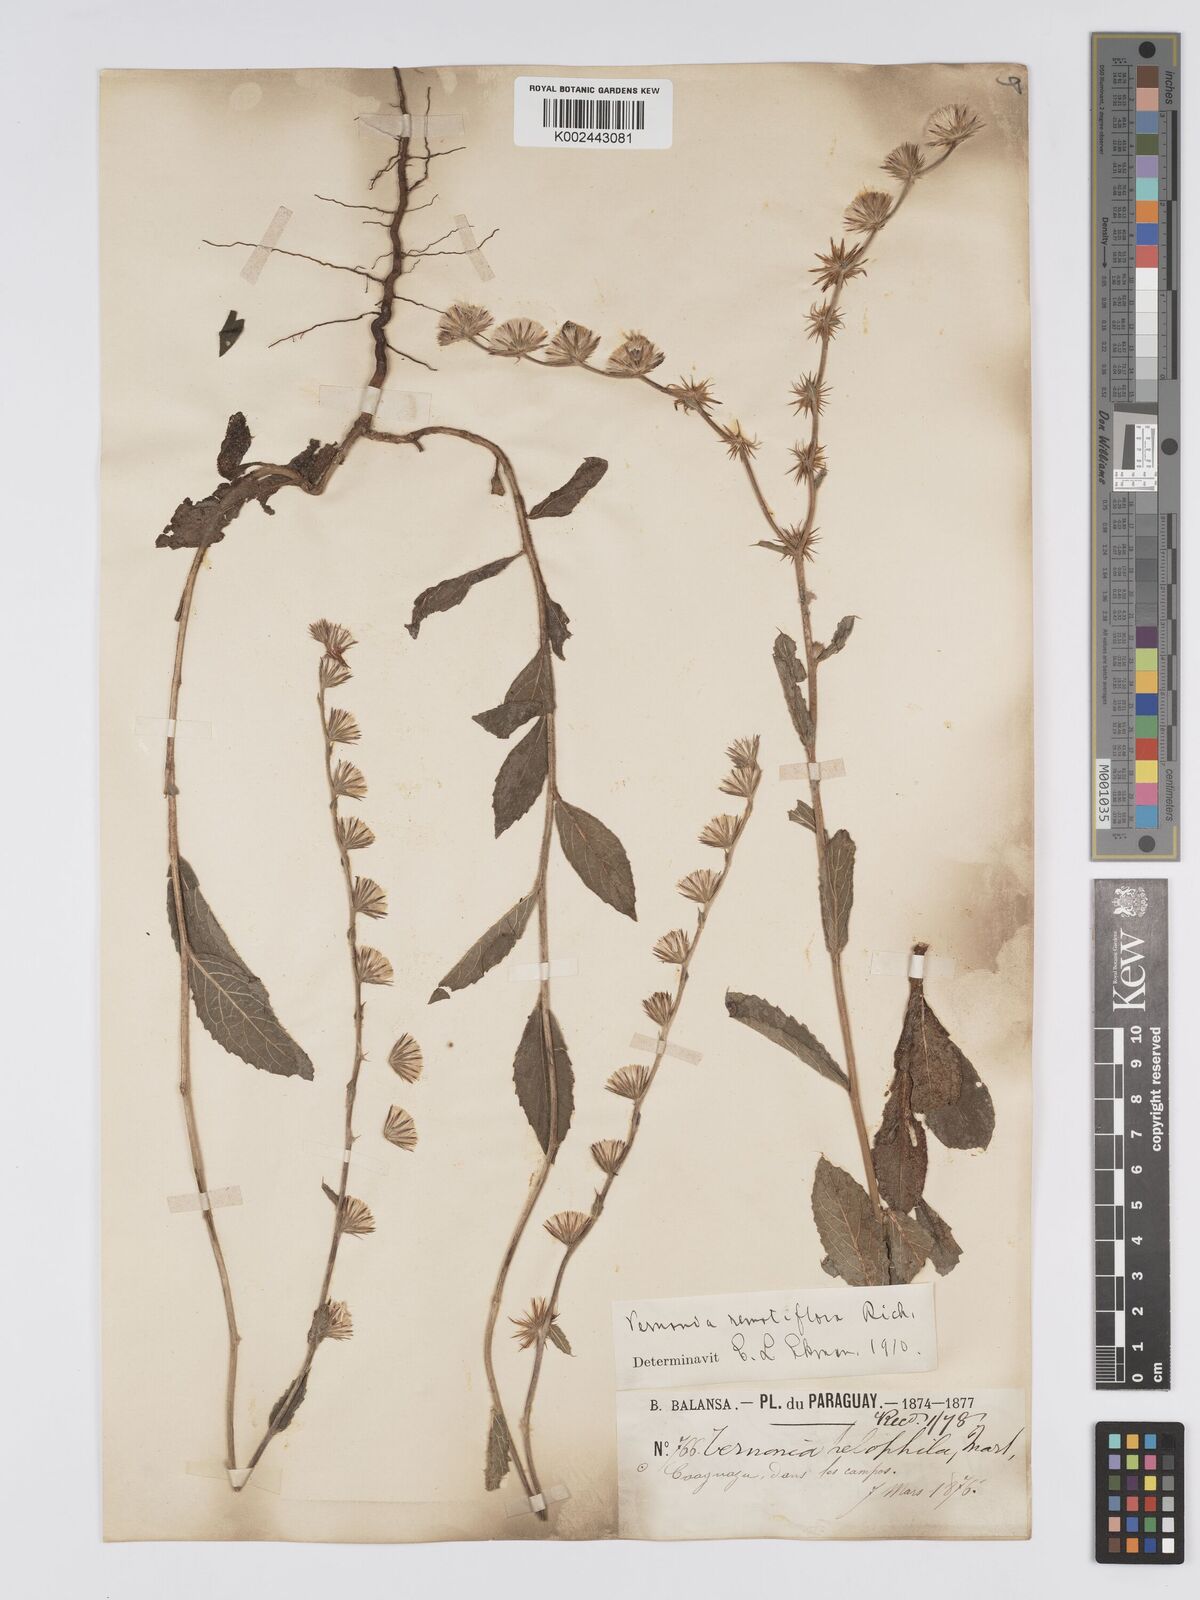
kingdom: Plantae
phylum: Tracheophyta
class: Magnoliopsida
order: Asterales
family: Asteraceae
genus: Lepidaploa
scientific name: Lepidaploa remotiflora
